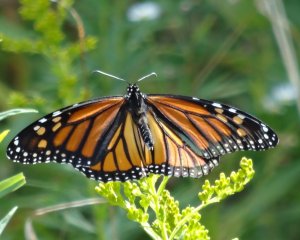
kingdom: Animalia
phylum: Arthropoda
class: Insecta
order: Lepidoptera
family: Nymphalidae
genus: Danaus
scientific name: Danaus plexippus
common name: Monarch
